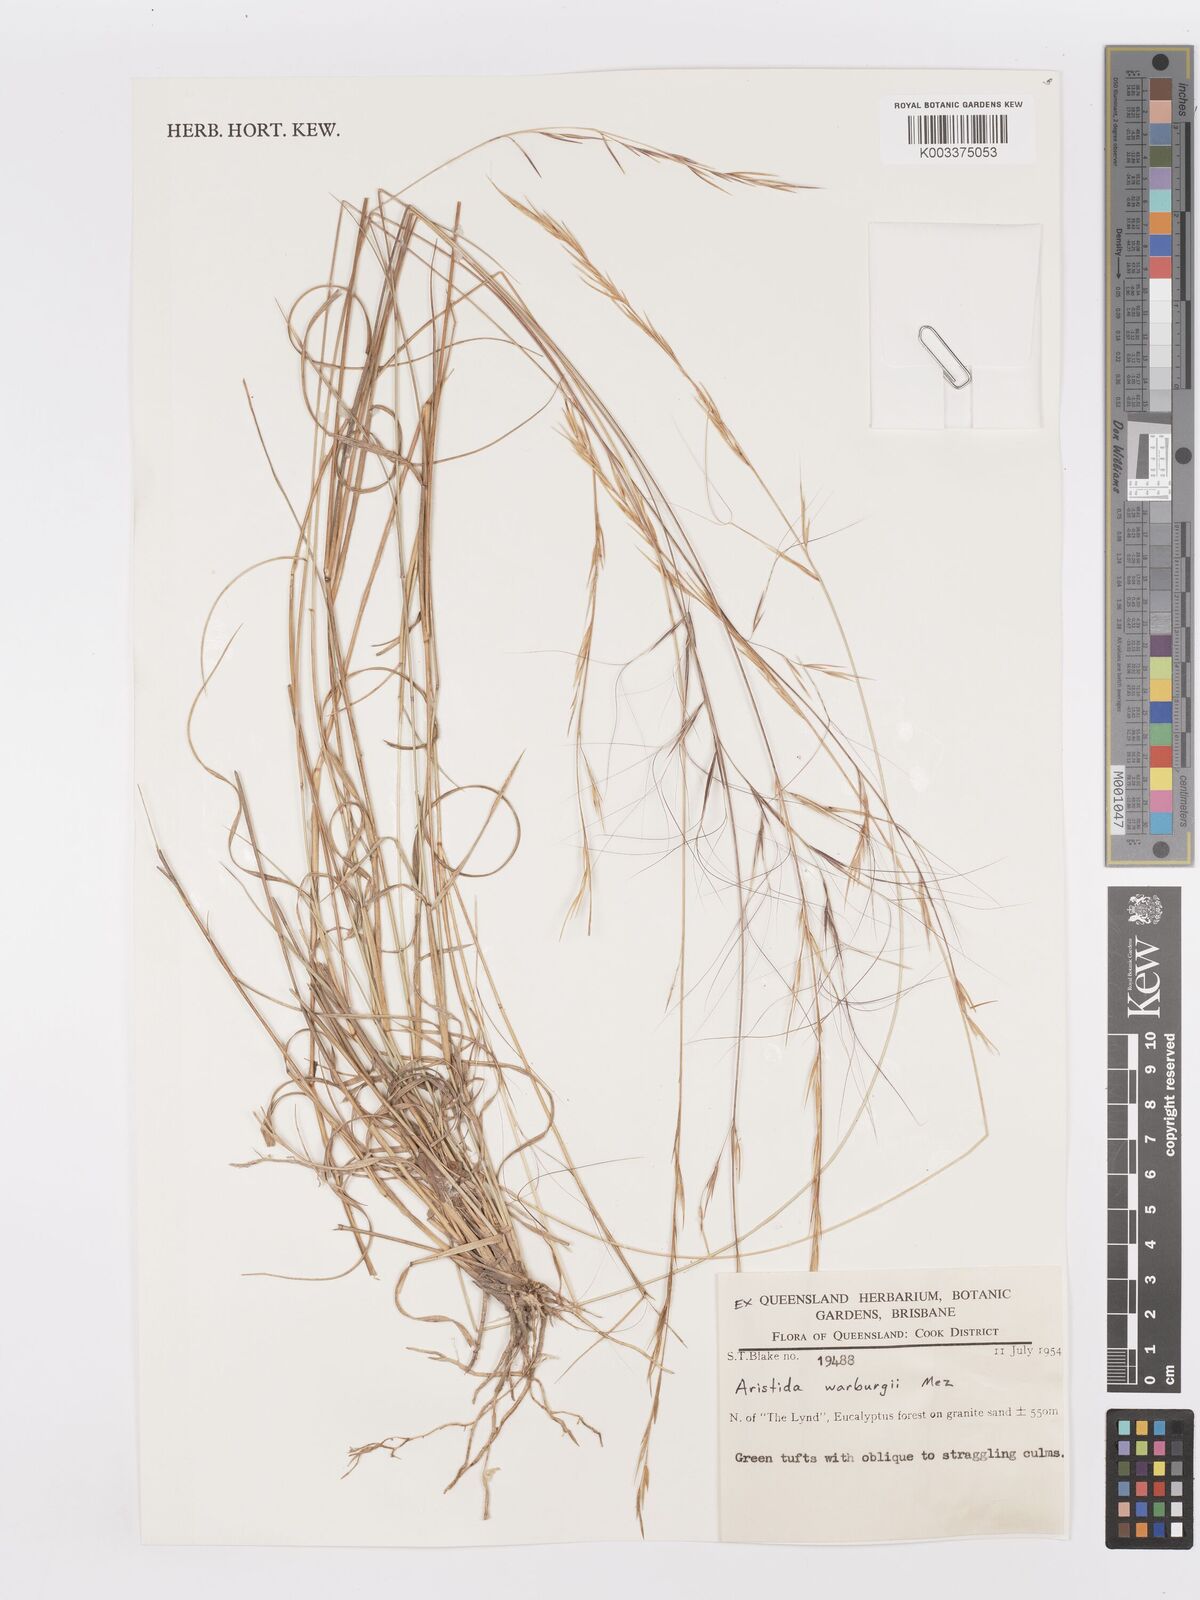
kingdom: Plantae
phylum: Tracheophyta
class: Liliopsida
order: Poales
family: Poaceae
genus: Aristida
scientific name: Aristida warburgii
